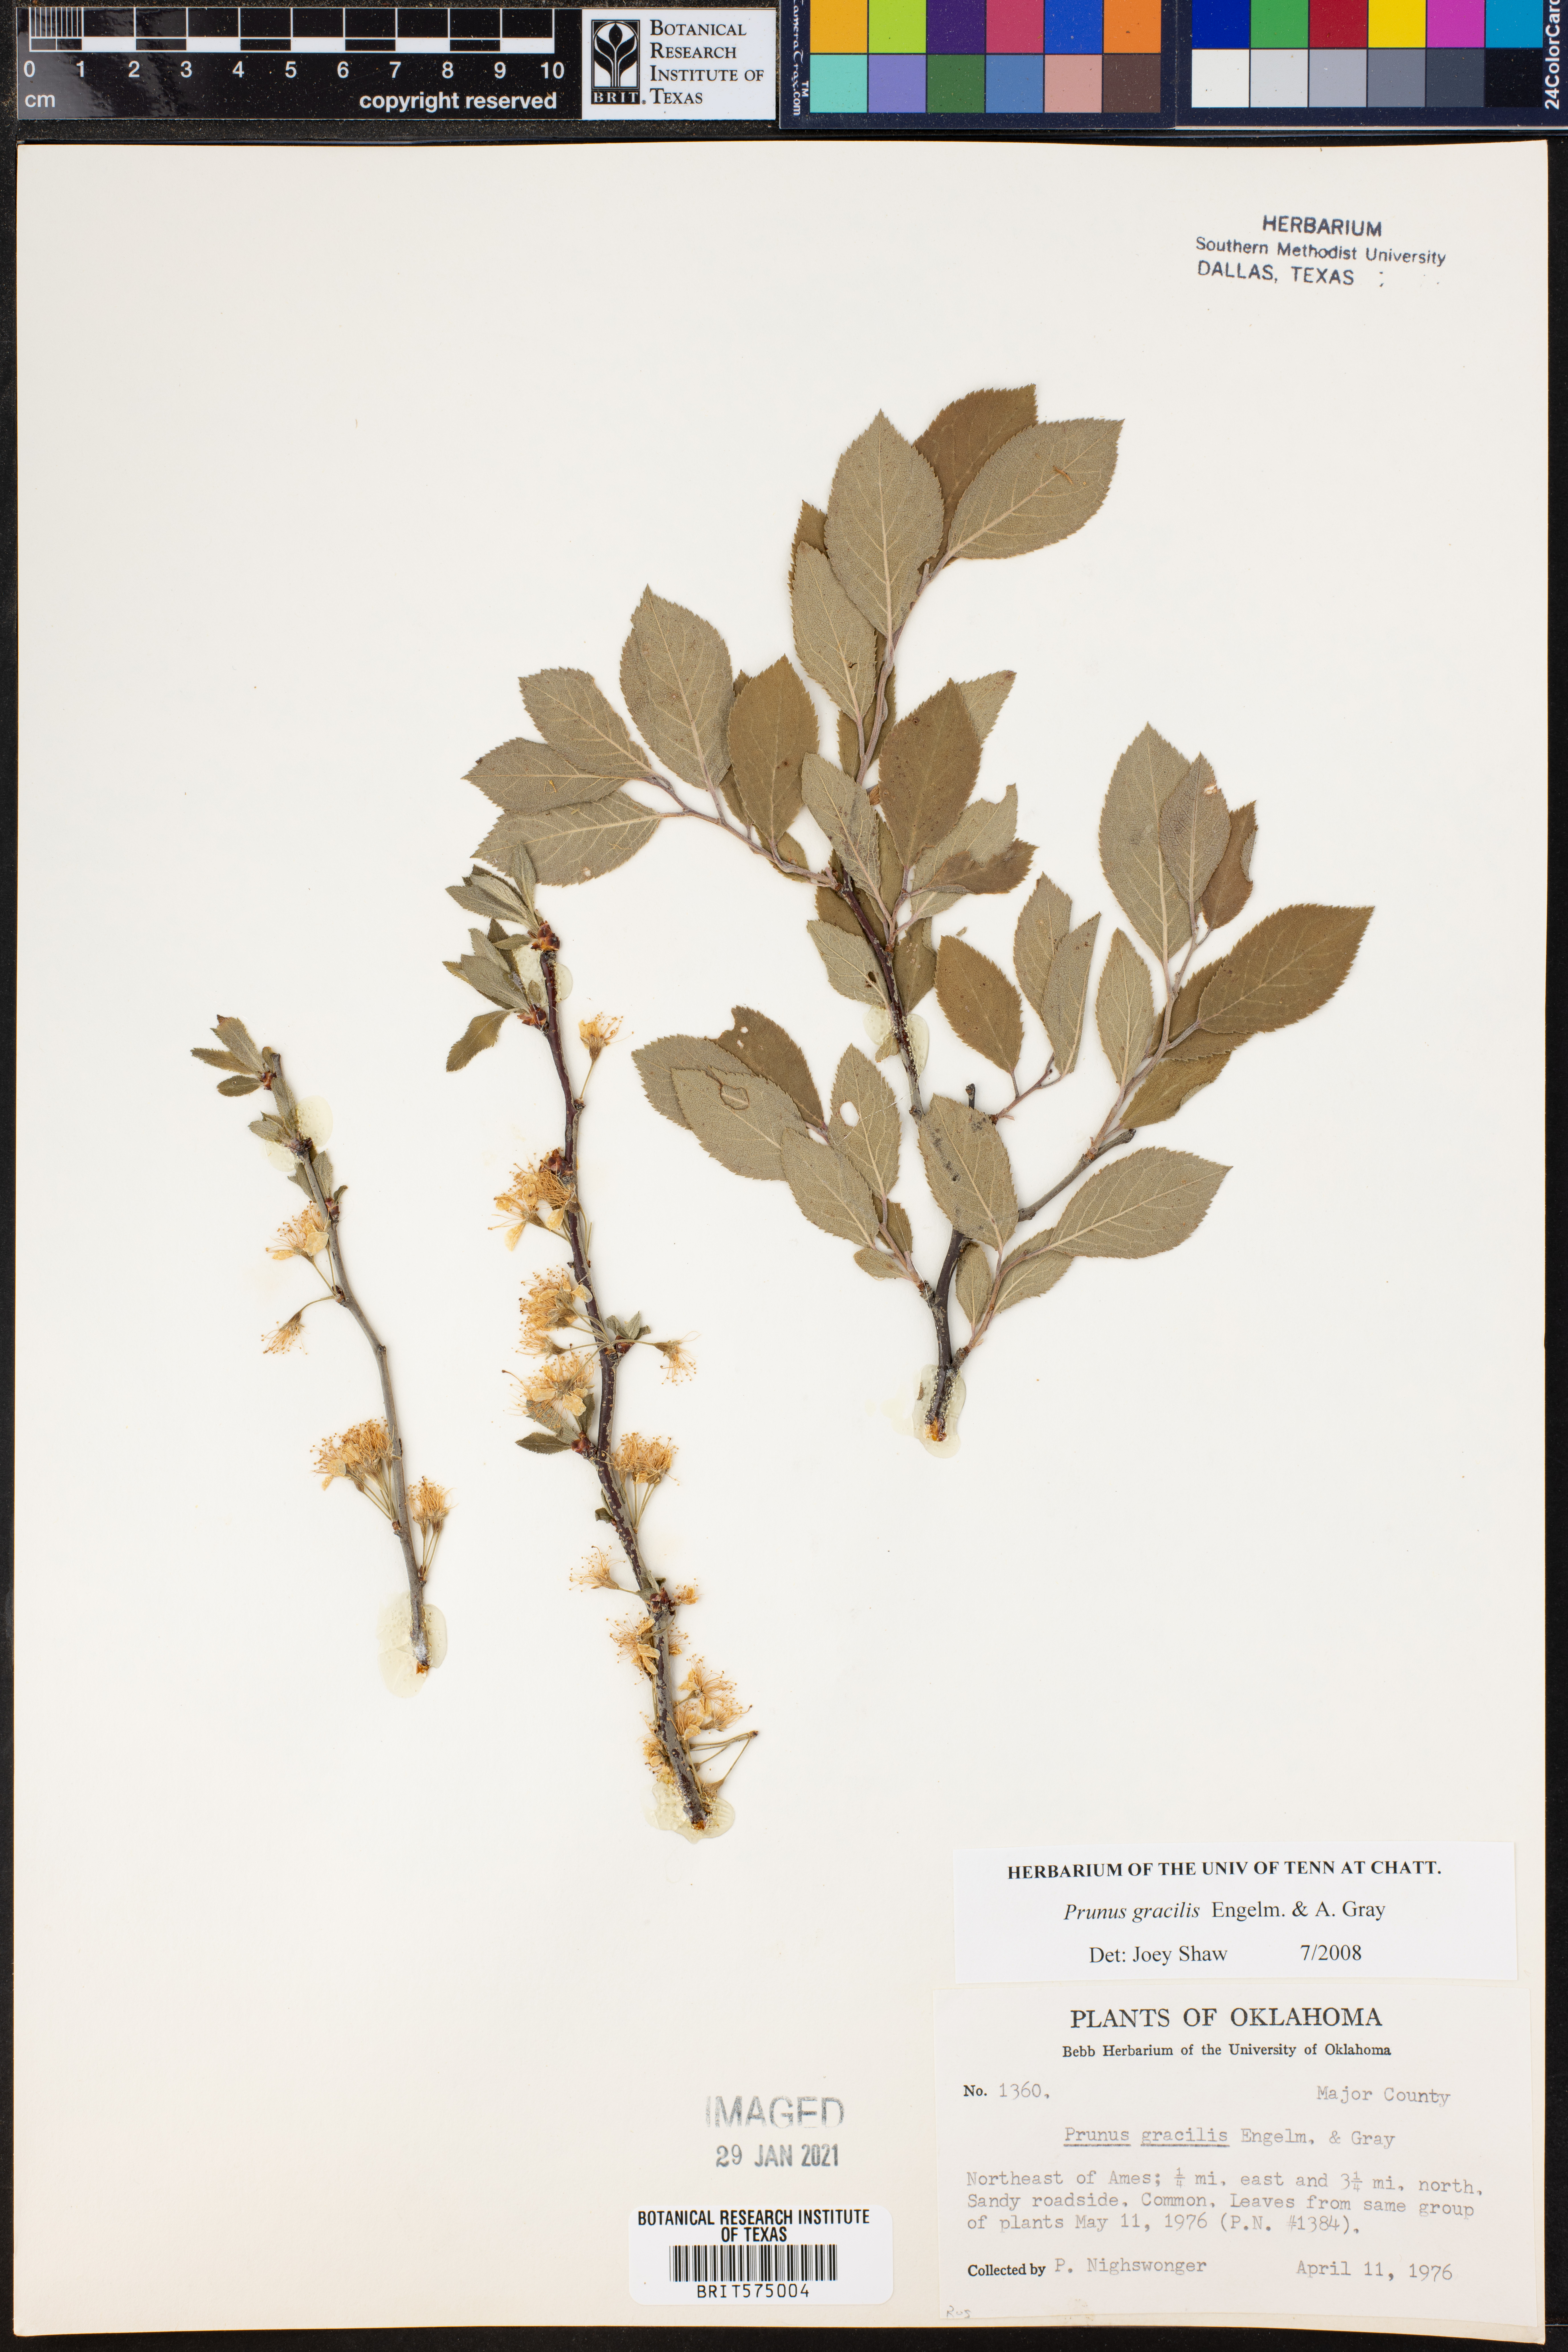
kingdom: Plantae
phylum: Tracheophyta
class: Magnoliopsida
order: Rosales
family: Rosaceae
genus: Prunus
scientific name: Prunus gracilis
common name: Oklahoma plum
